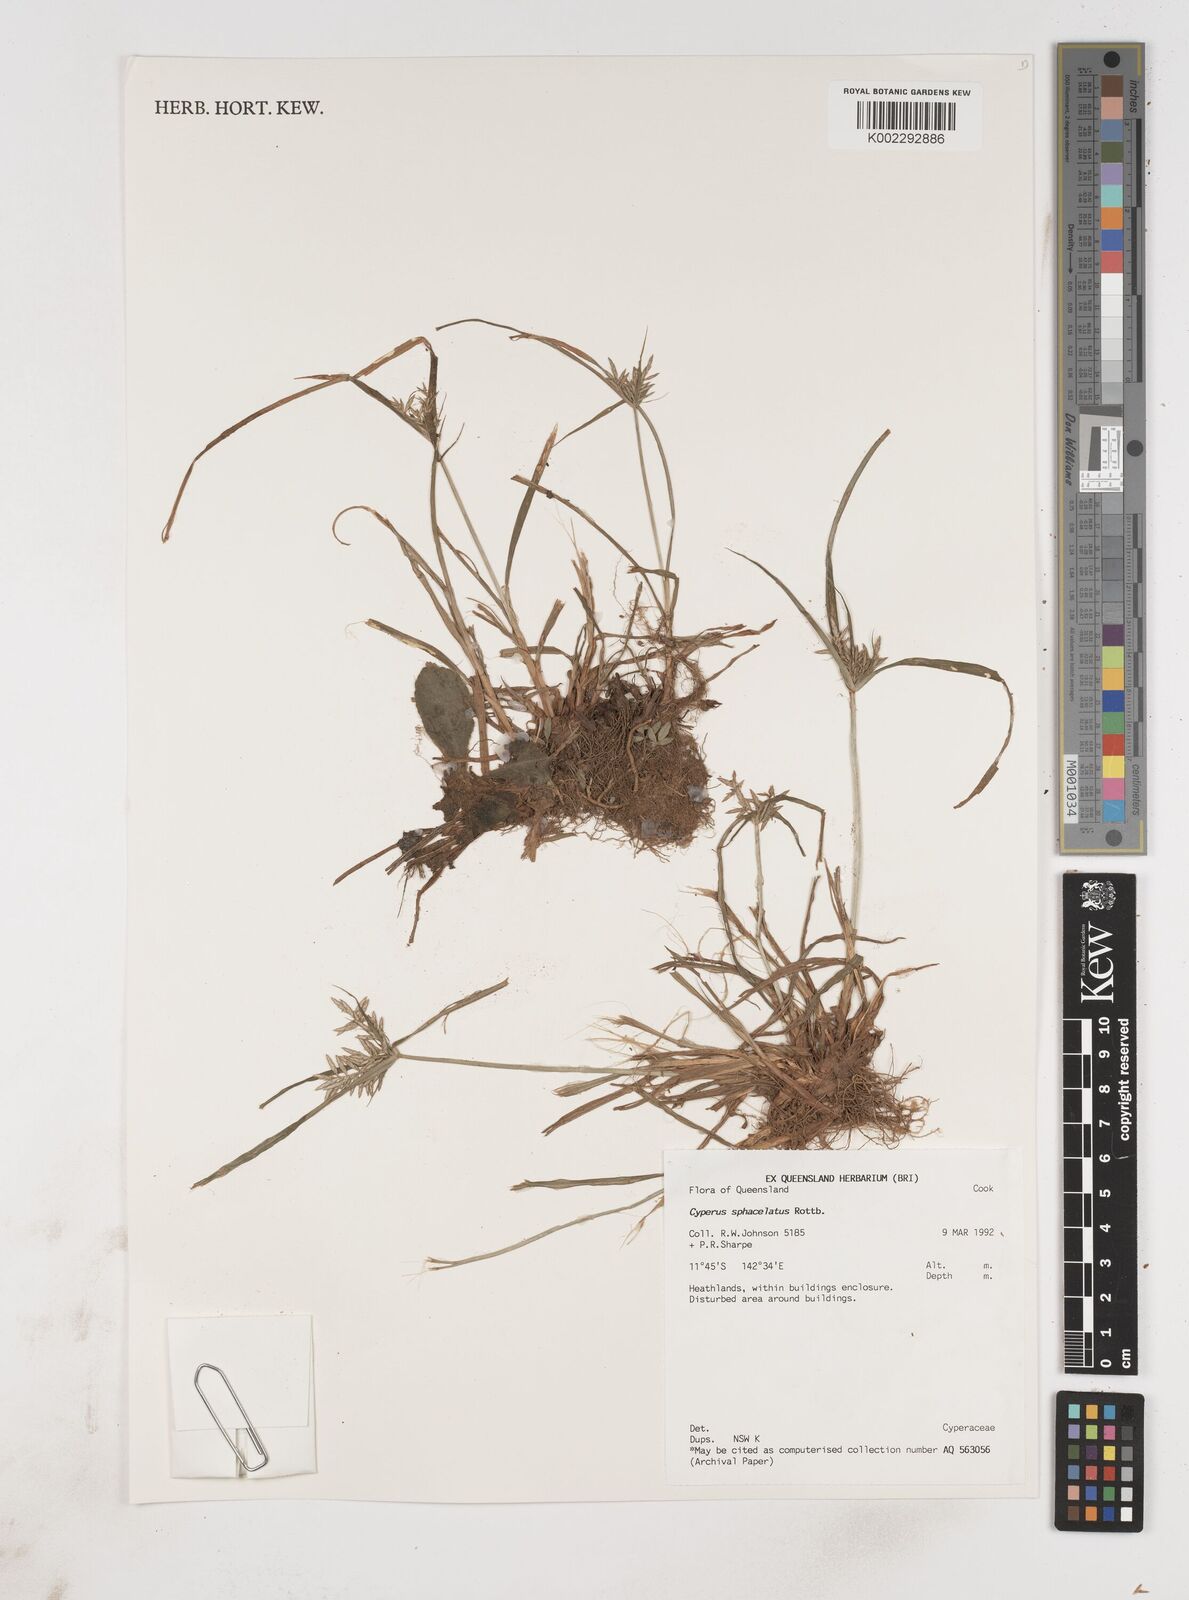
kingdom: Plantae
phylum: Tracheophyta
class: Liliopsida
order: Poales
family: Cyperaceae
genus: Cyperus
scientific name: Cyperus sphacelatus
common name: Roadside flatsedge
